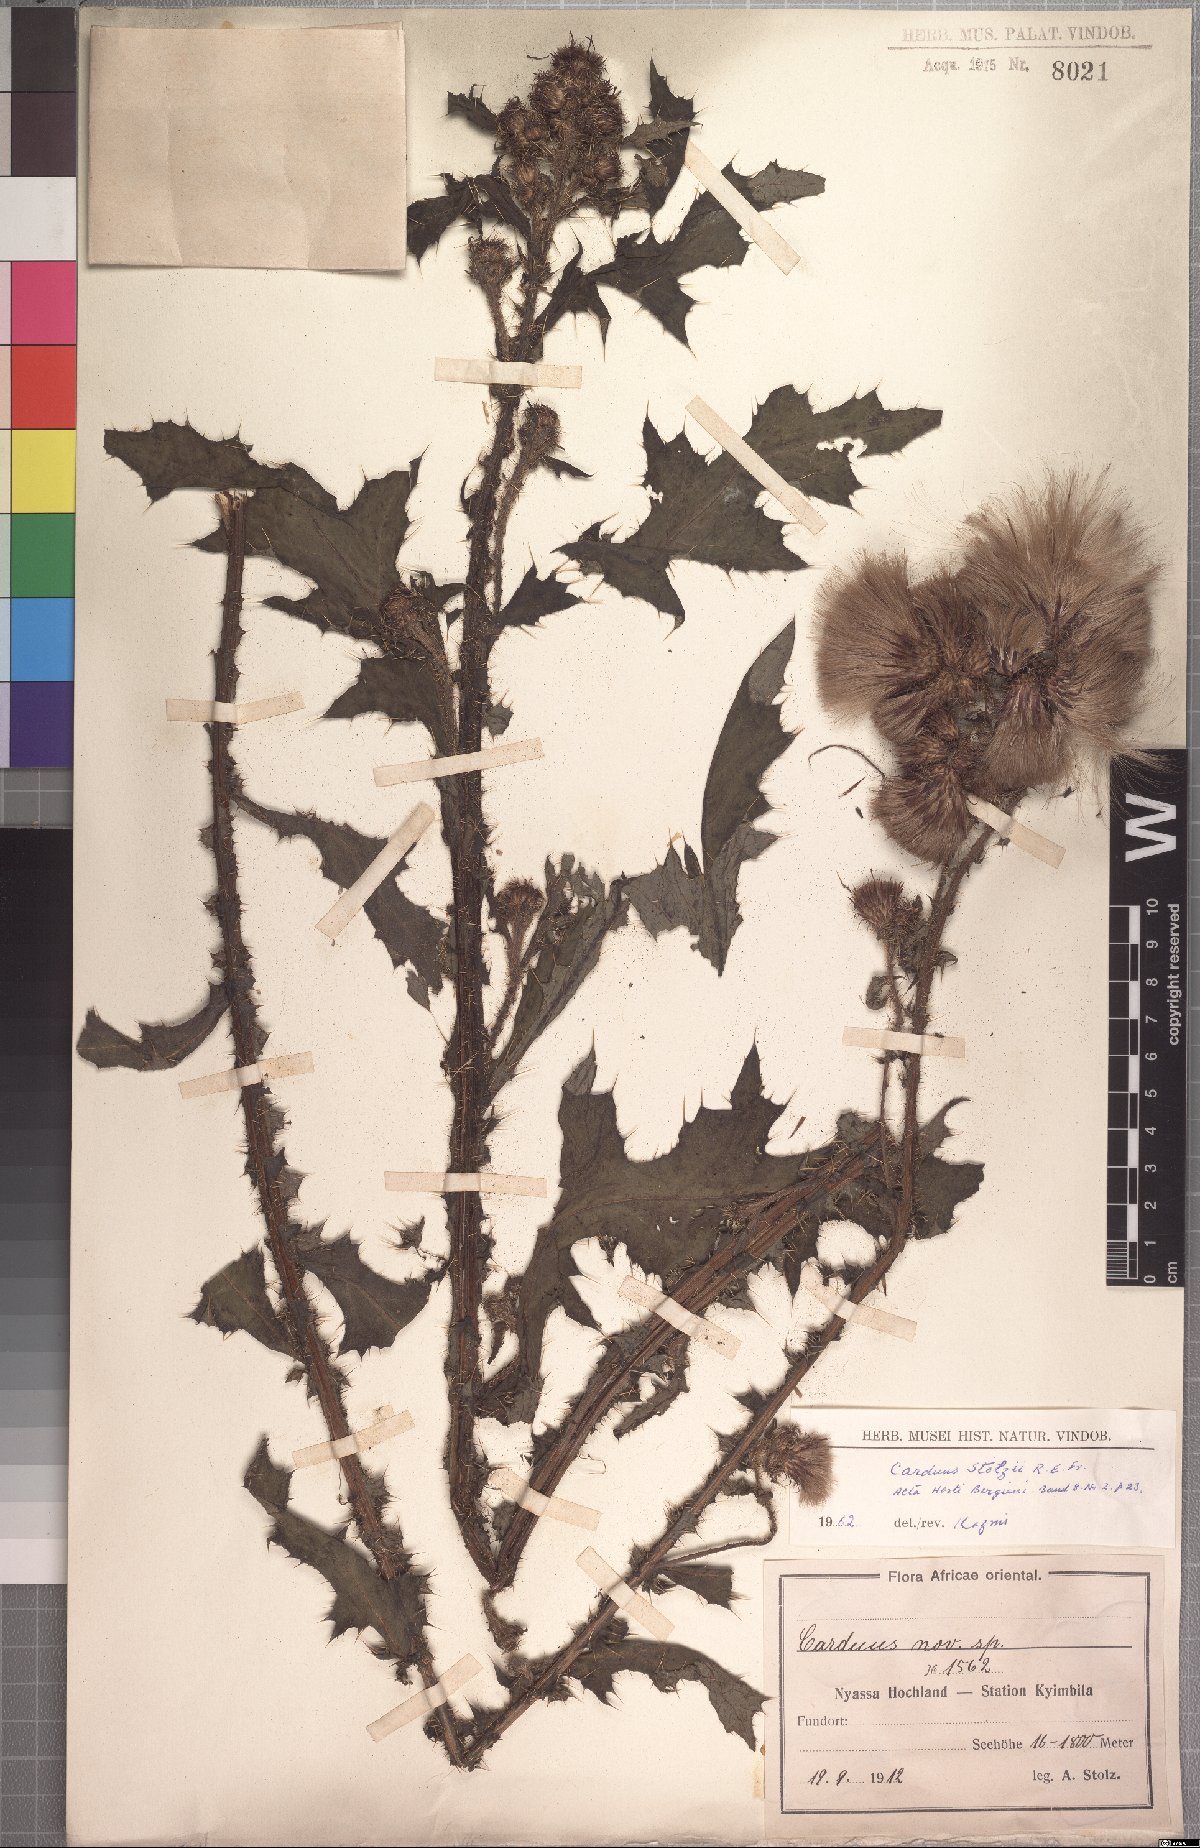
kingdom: Plantae
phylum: Tracheophyta
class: Magnoliopsida
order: Asterales
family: Asteraceae
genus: Carduus
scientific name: Carduus leptacanthus
